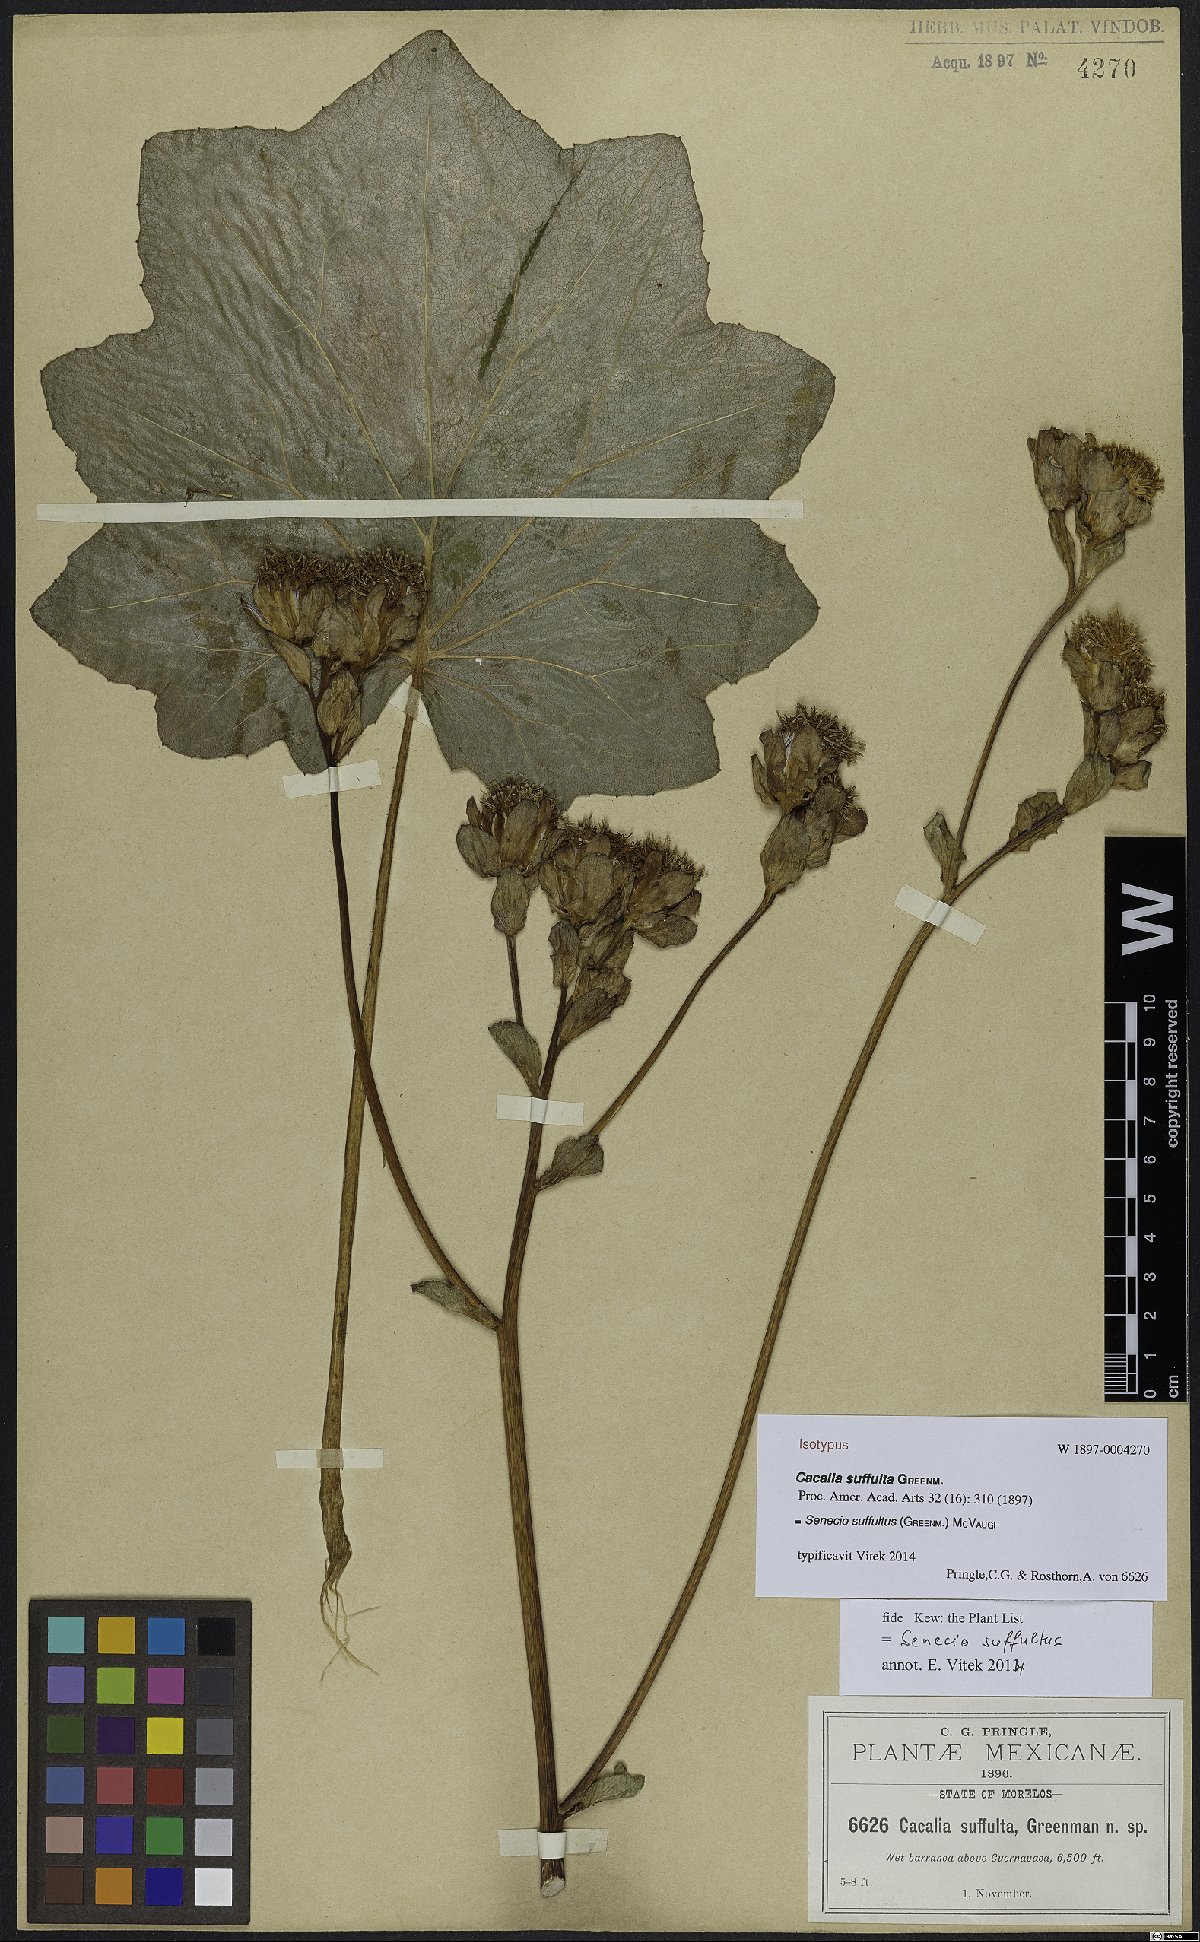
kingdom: Plantae
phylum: Tracheophyta
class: Magnoliopsida
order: Asterales
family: Asteraceae
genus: Roldana
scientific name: Roldana suffulta
